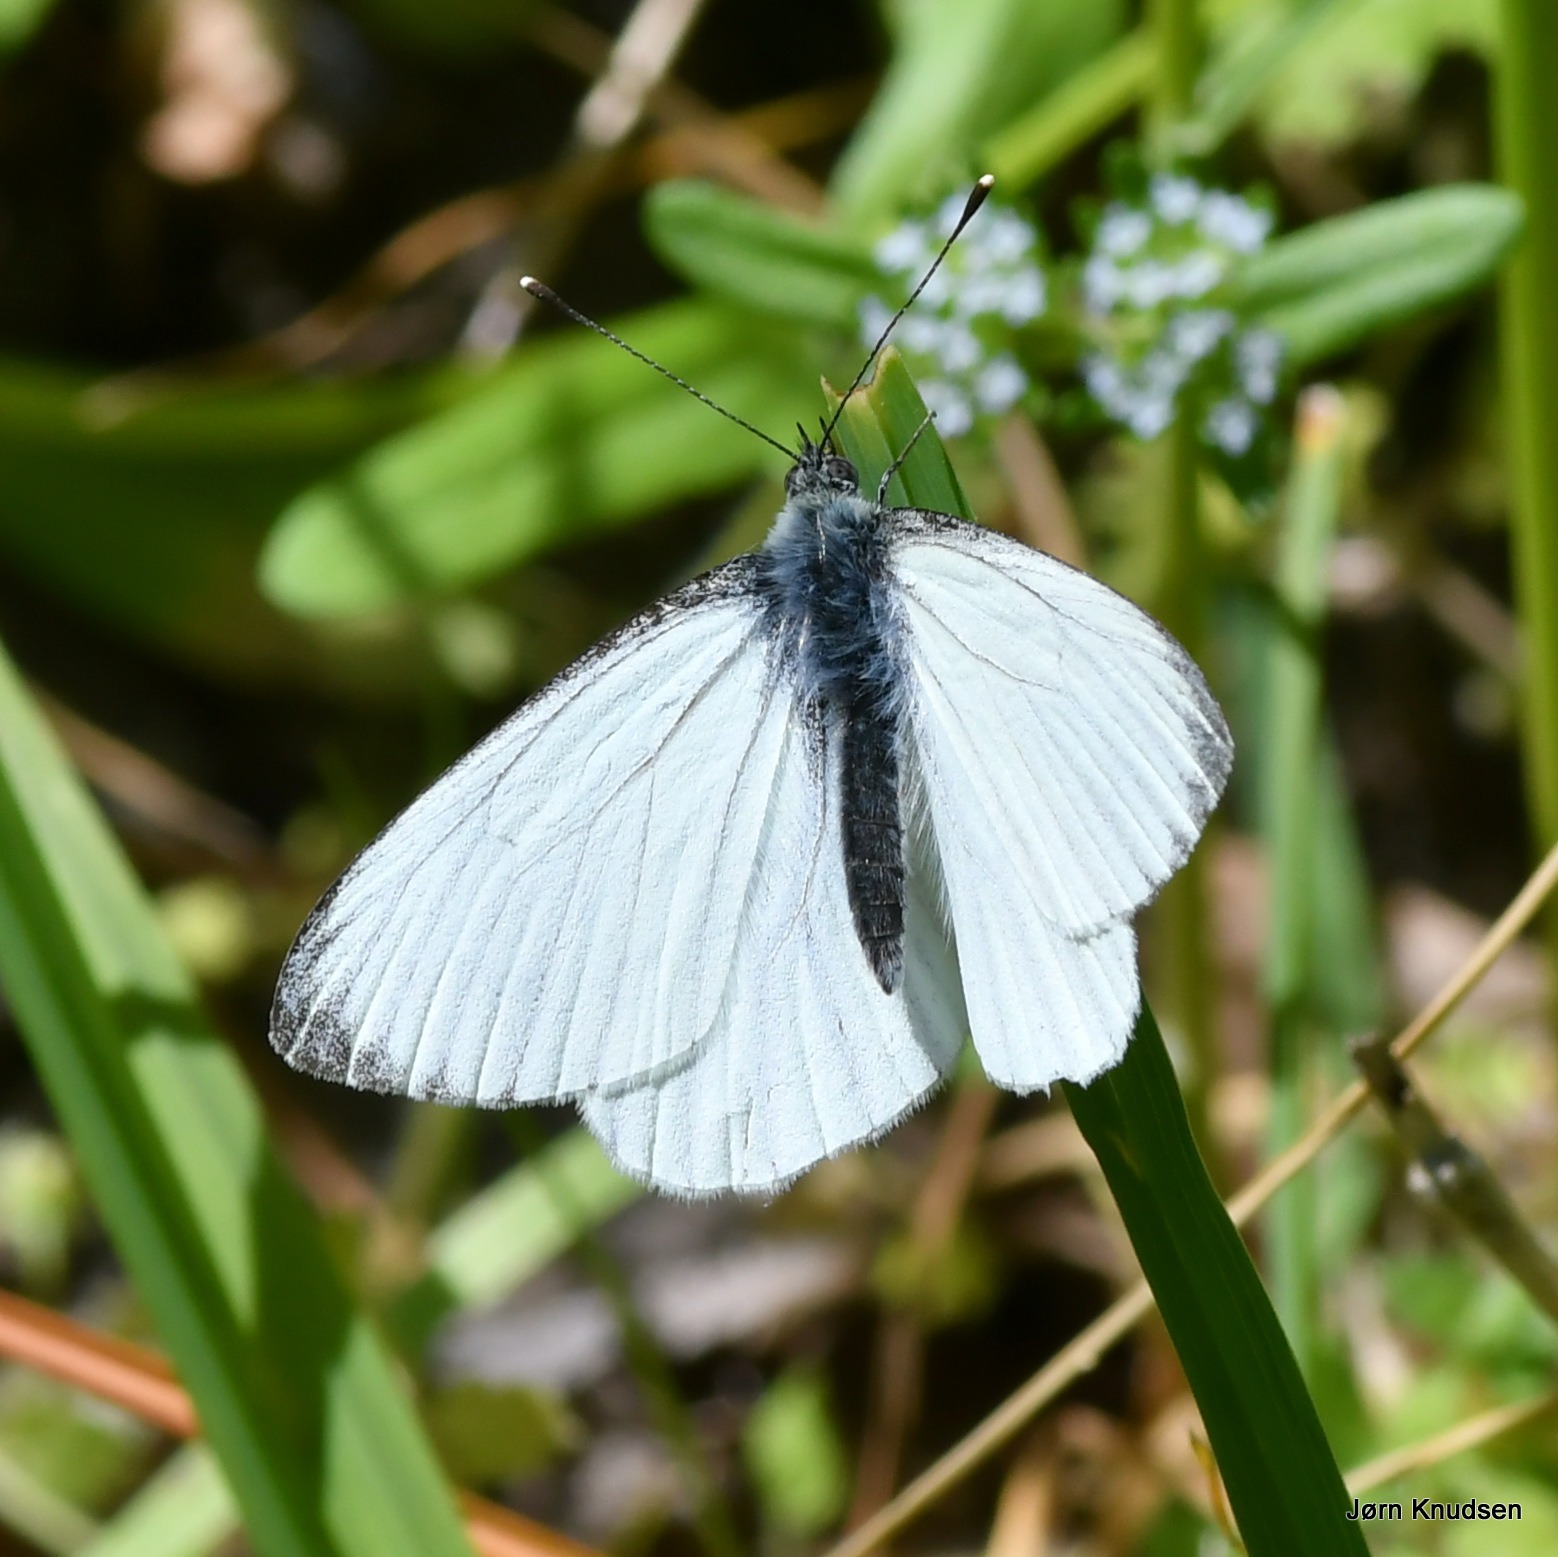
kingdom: Animalia
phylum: Arthropoda
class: Insecta
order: Lepidoptera
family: Pieridae
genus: Pieris
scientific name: Pieris napi
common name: Grønåret kålsommerfugl
